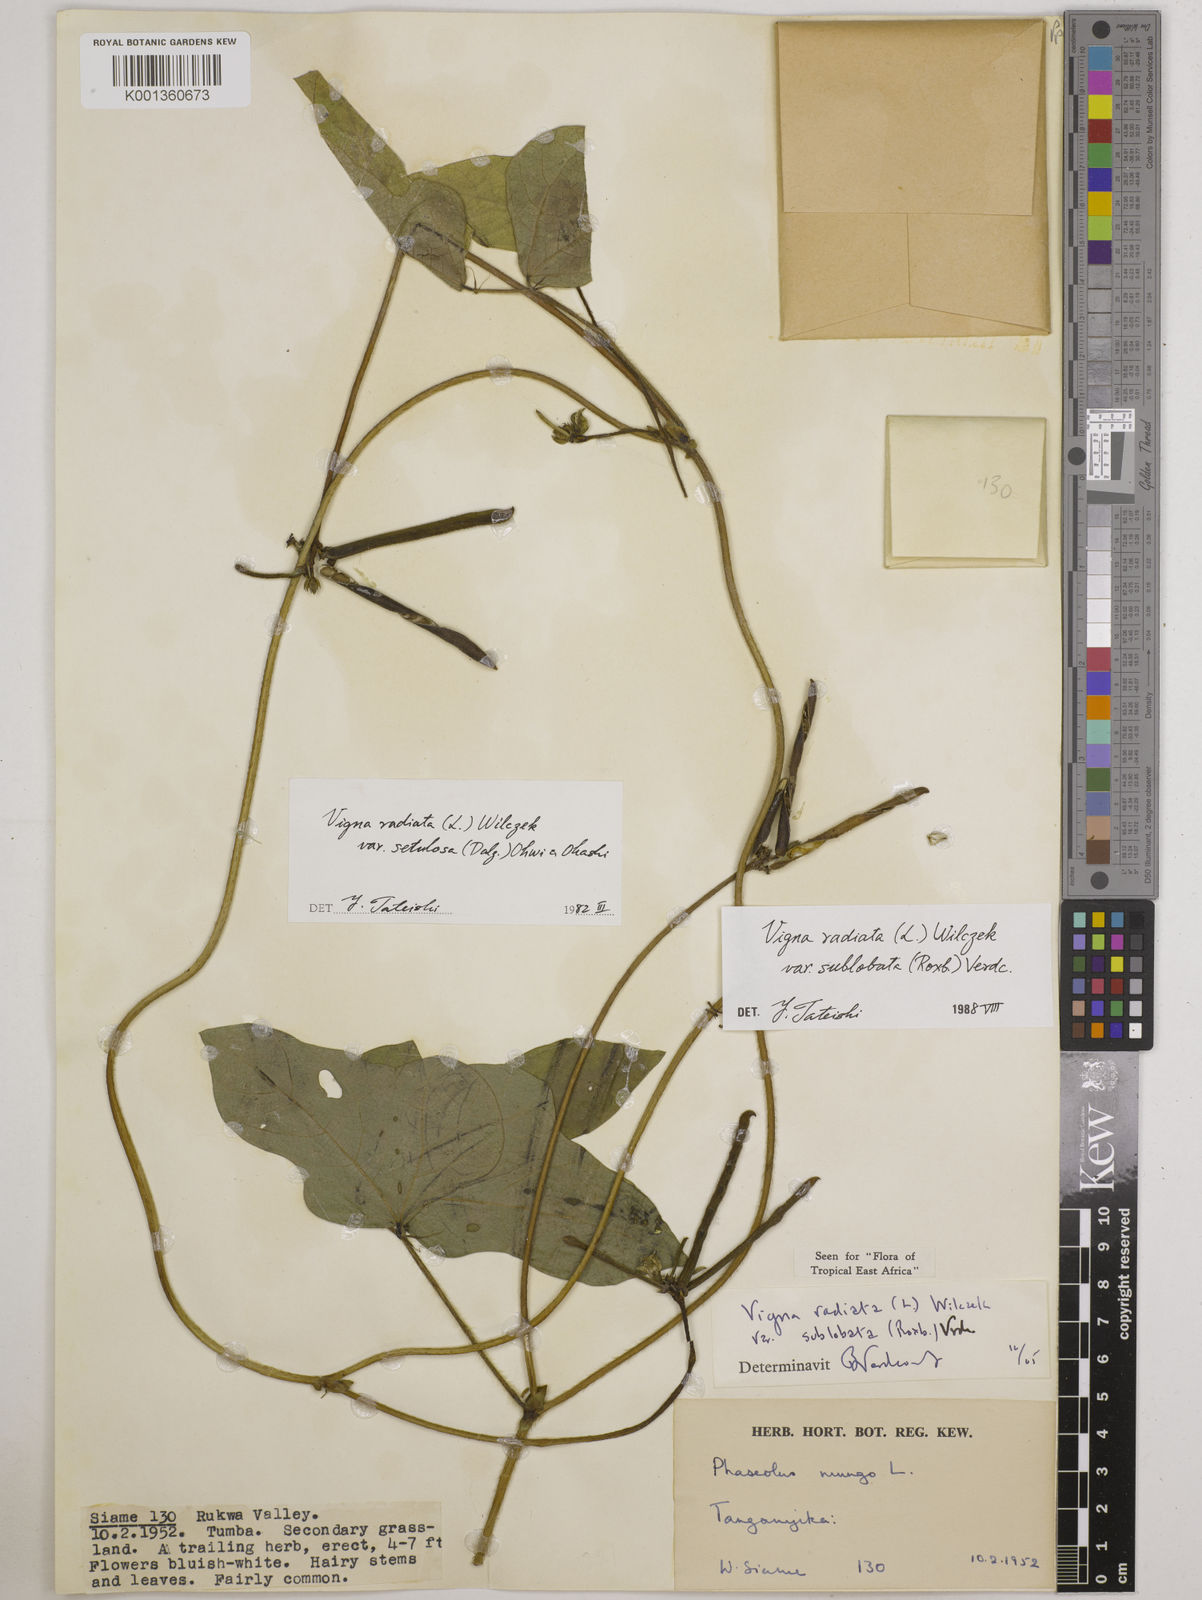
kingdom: Plantae
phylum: Tracheophyta
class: Magnoliopsida
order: Fabales
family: Fabaceae
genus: Vigna
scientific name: Vigna radiata
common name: Mung-bean
